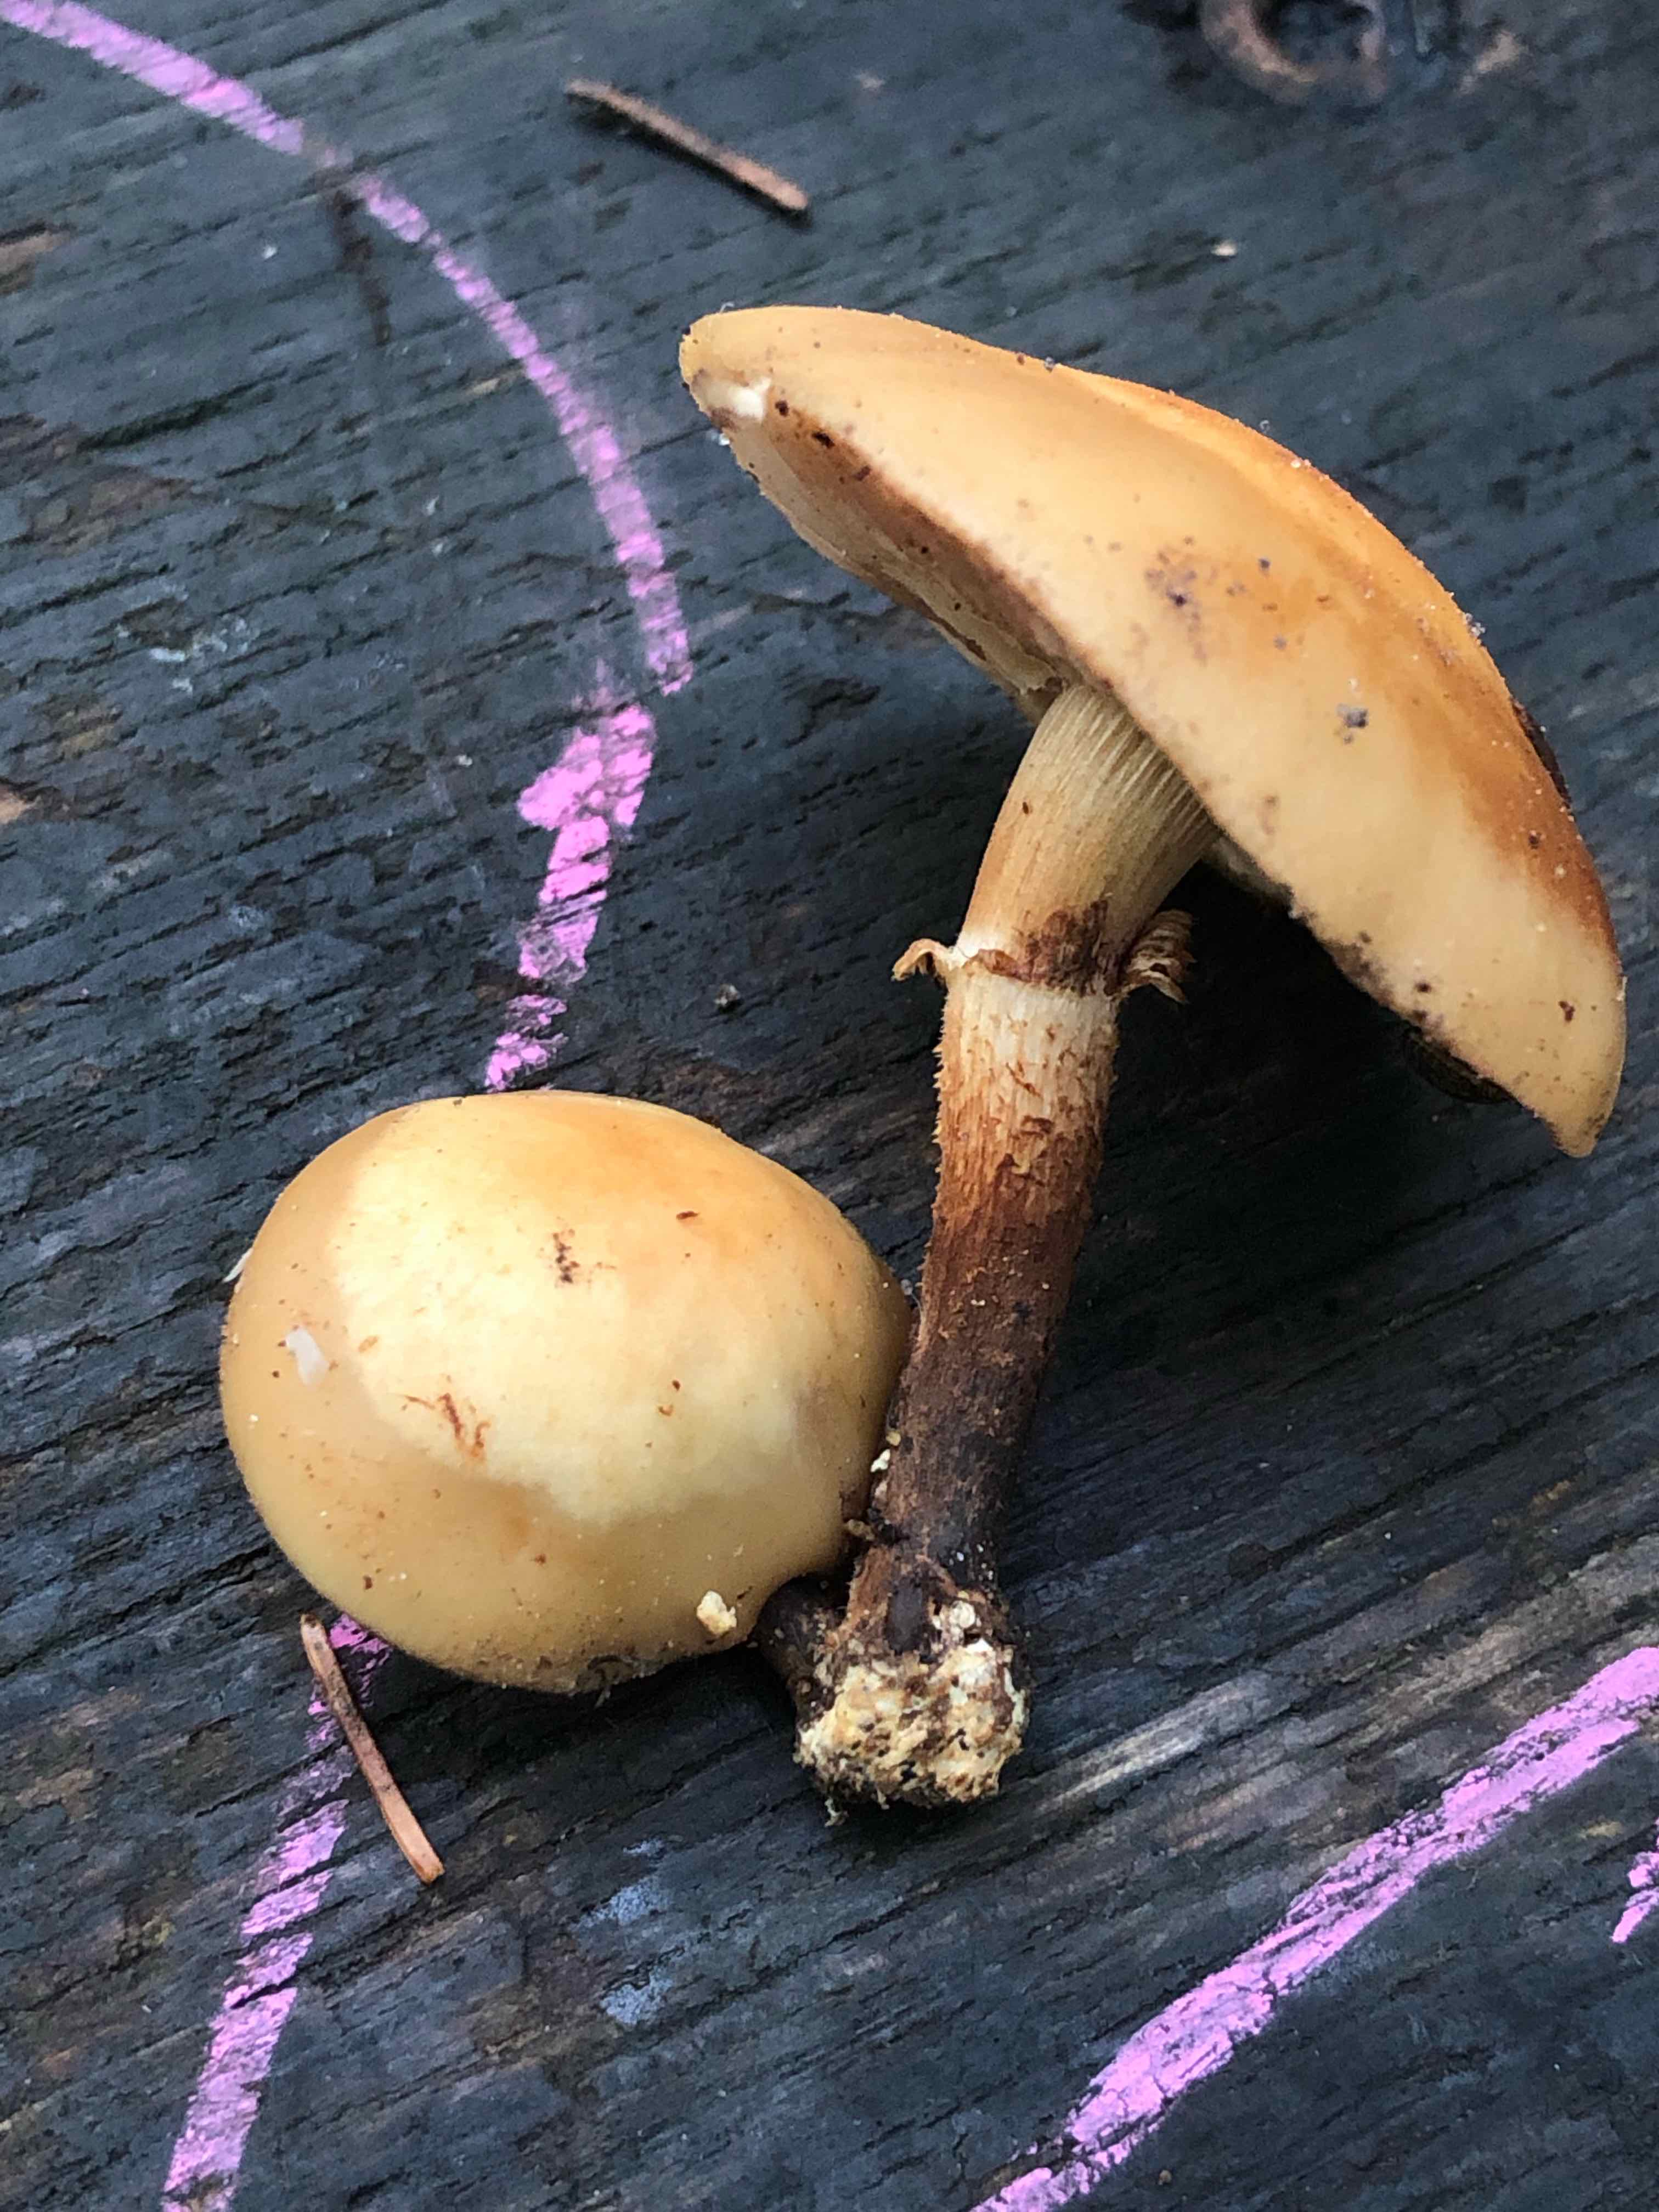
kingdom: Fungi
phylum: Basidiomycota
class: Agaricomycetes
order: Agaricales
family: Strophariaceae
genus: Kuehneromyces
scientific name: Kuehneromyces mutabilis
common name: foranderlig skælhat
